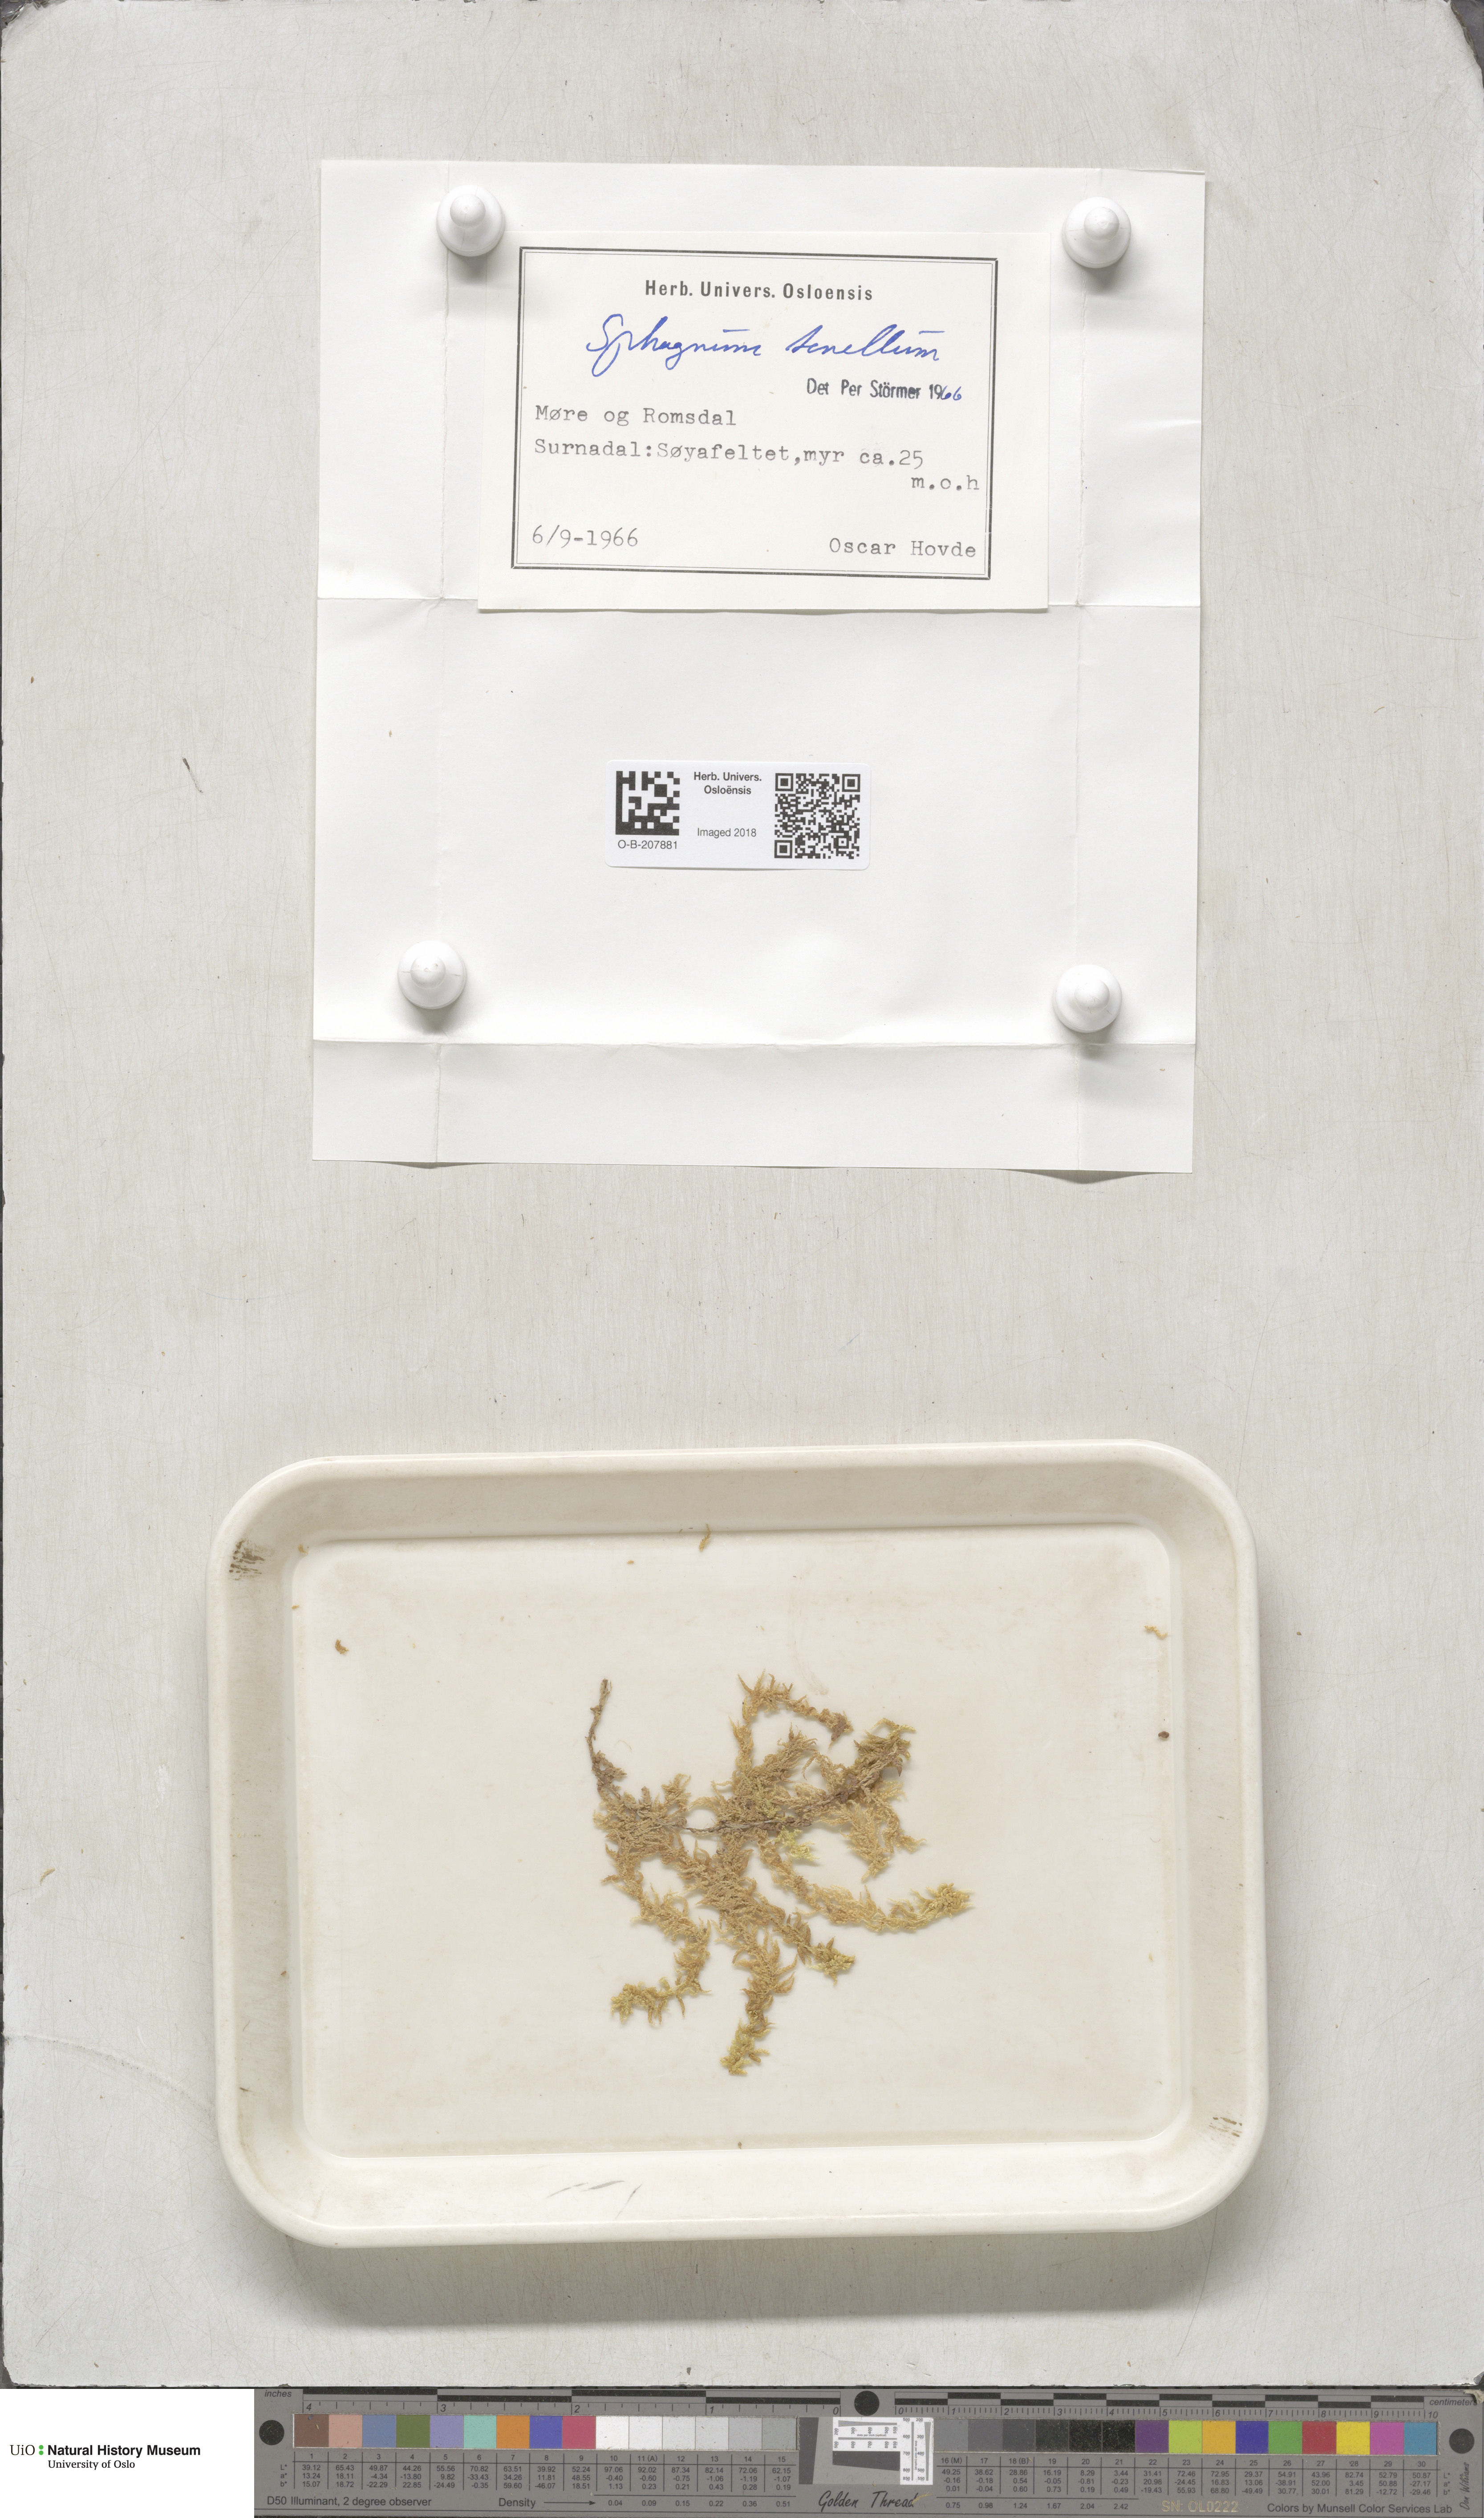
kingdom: Plantae
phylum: Bryophyta
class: Sphagnopsida
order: Sphagnales
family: Sphagnaceae
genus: Sphagnum
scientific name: Sphagnum tenellum
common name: Soft bog-moss
